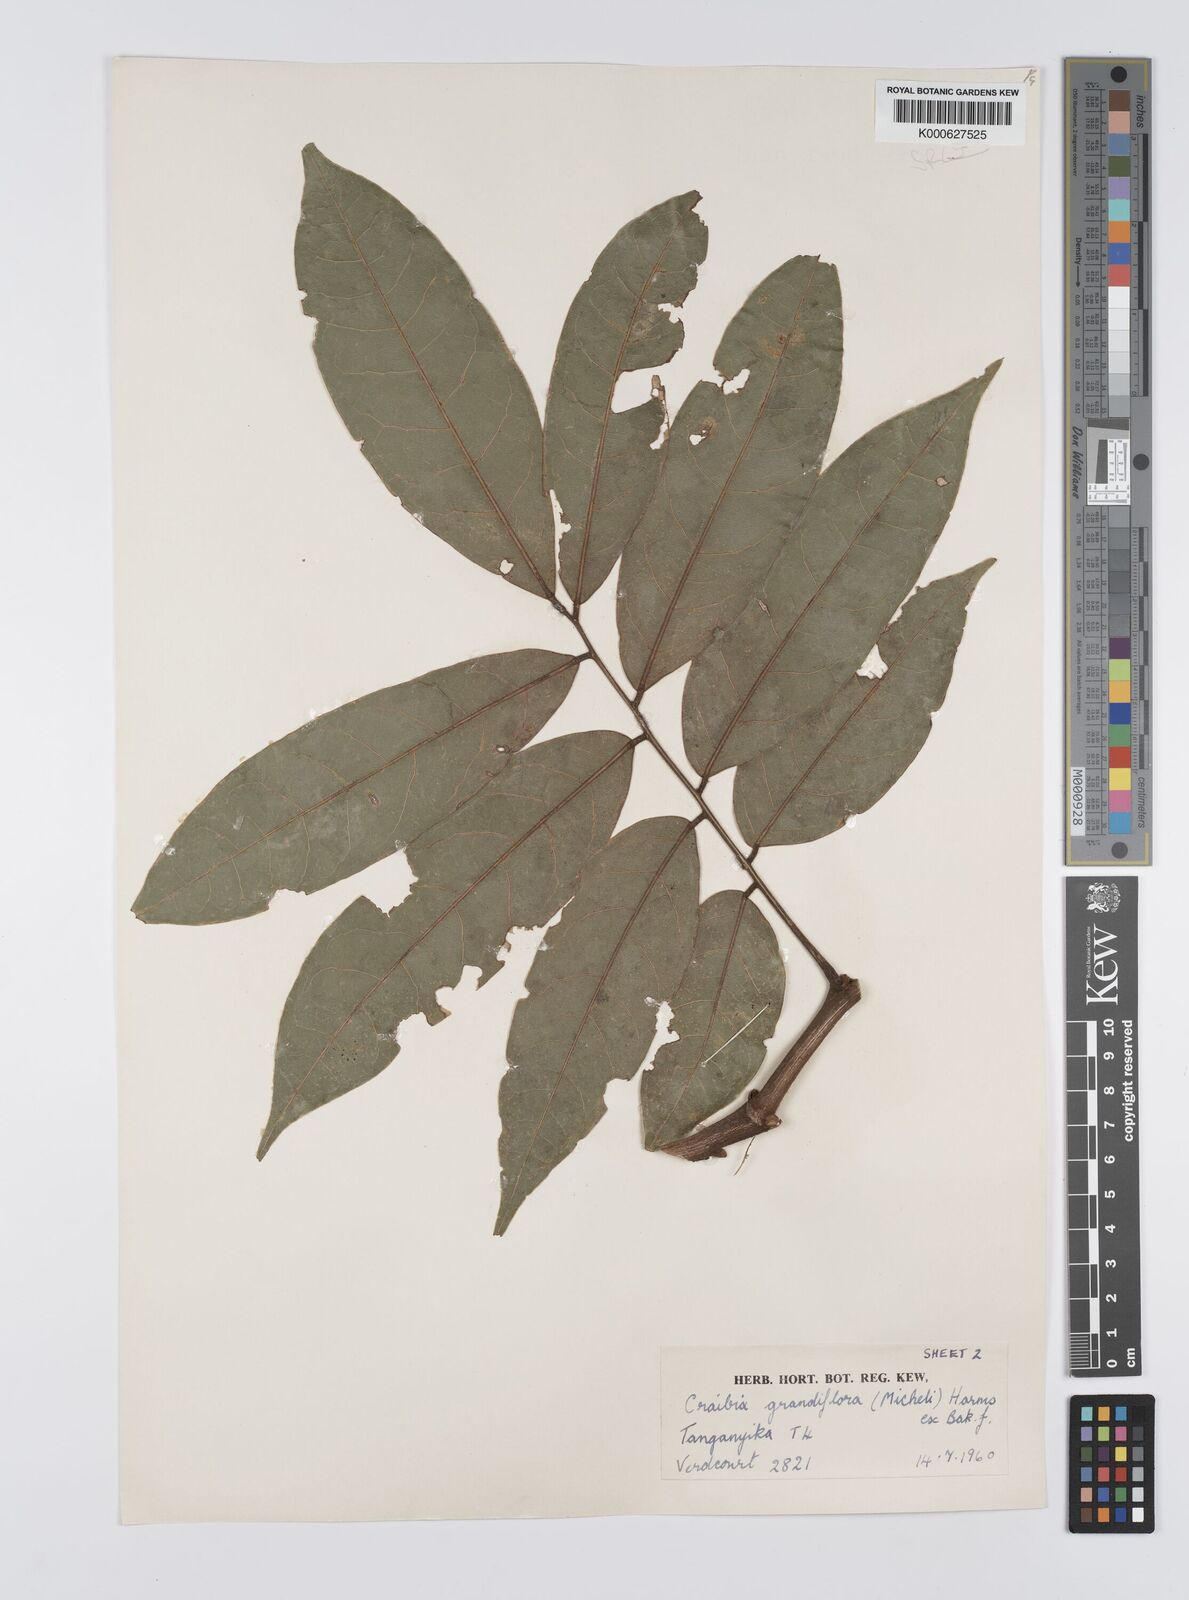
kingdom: Plantae
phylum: Tracheophyta
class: Magnoliopsida
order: Fabales
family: Fabaceae
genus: Craibia
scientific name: Craibia grandiflora
